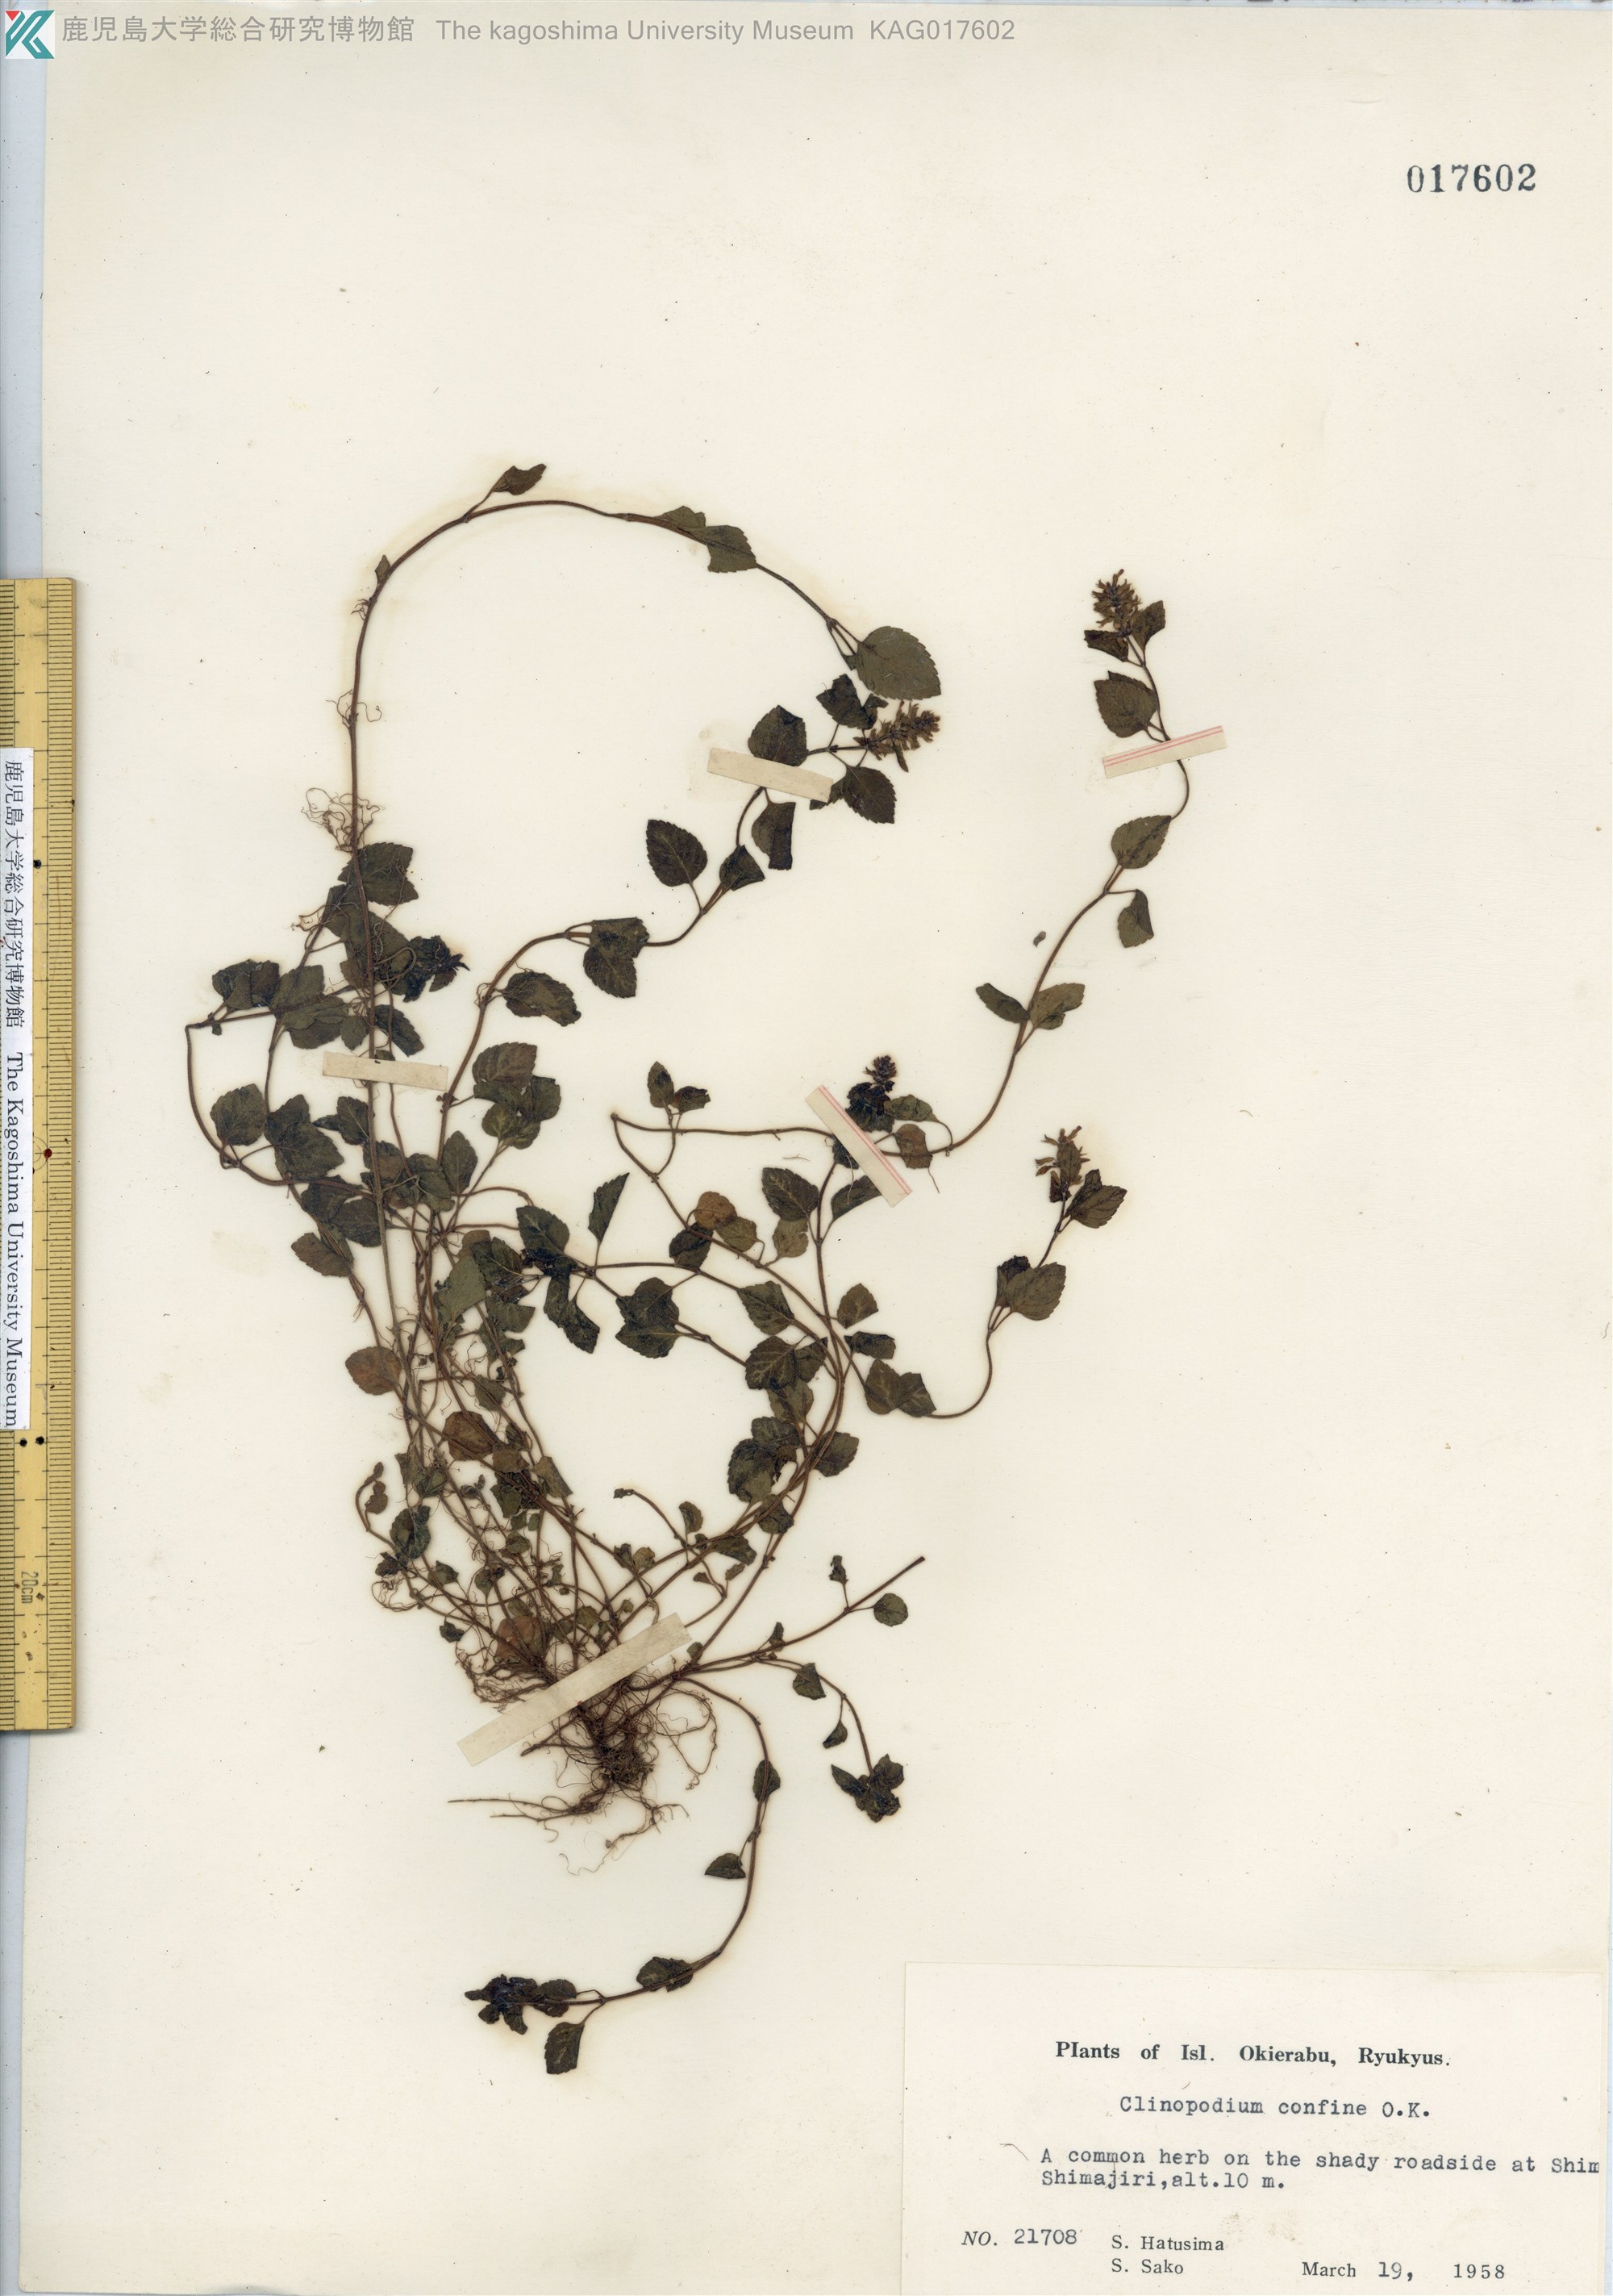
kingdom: Plantae
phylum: Tracheophyta
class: Magnoliopsida
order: Lamiales
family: Lamiaceae
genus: Clinopodium
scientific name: Clinopodium gracile
